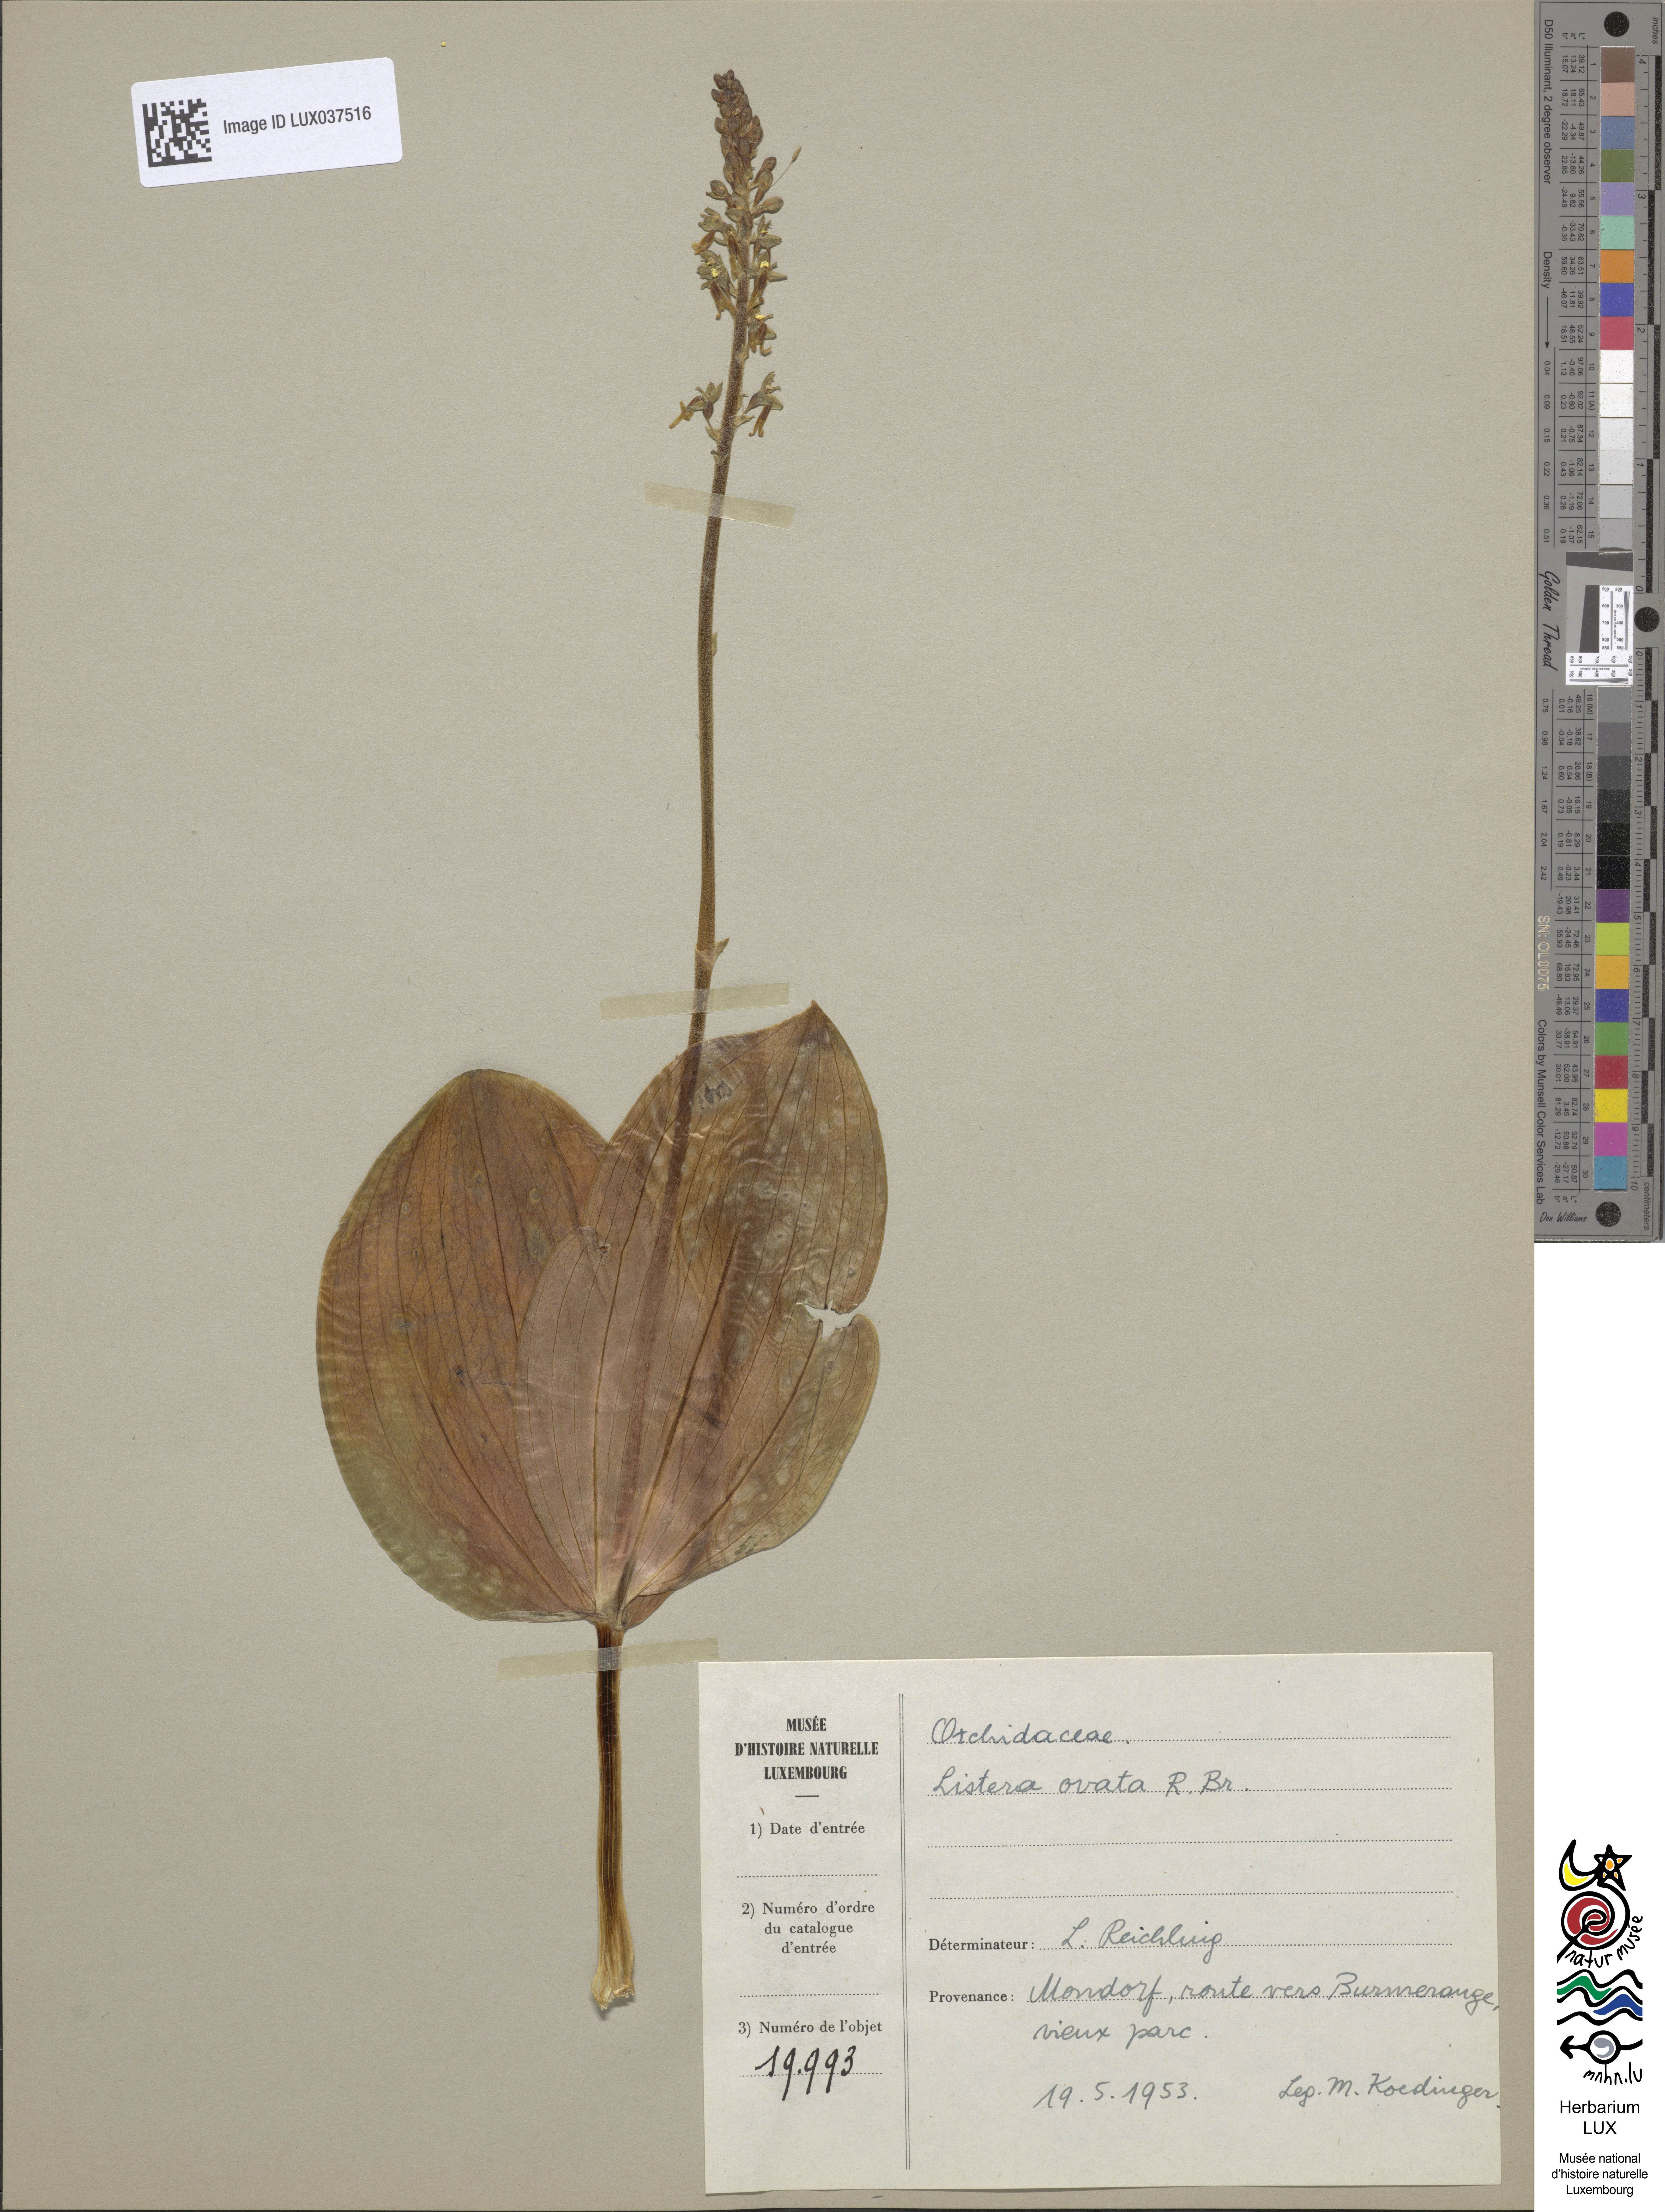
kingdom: Plantae
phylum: Tracheophyta
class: Liliopsida
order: Asparagales
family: Orchidaceae
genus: Neottia
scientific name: Neottia ovata
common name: Common twayblade
